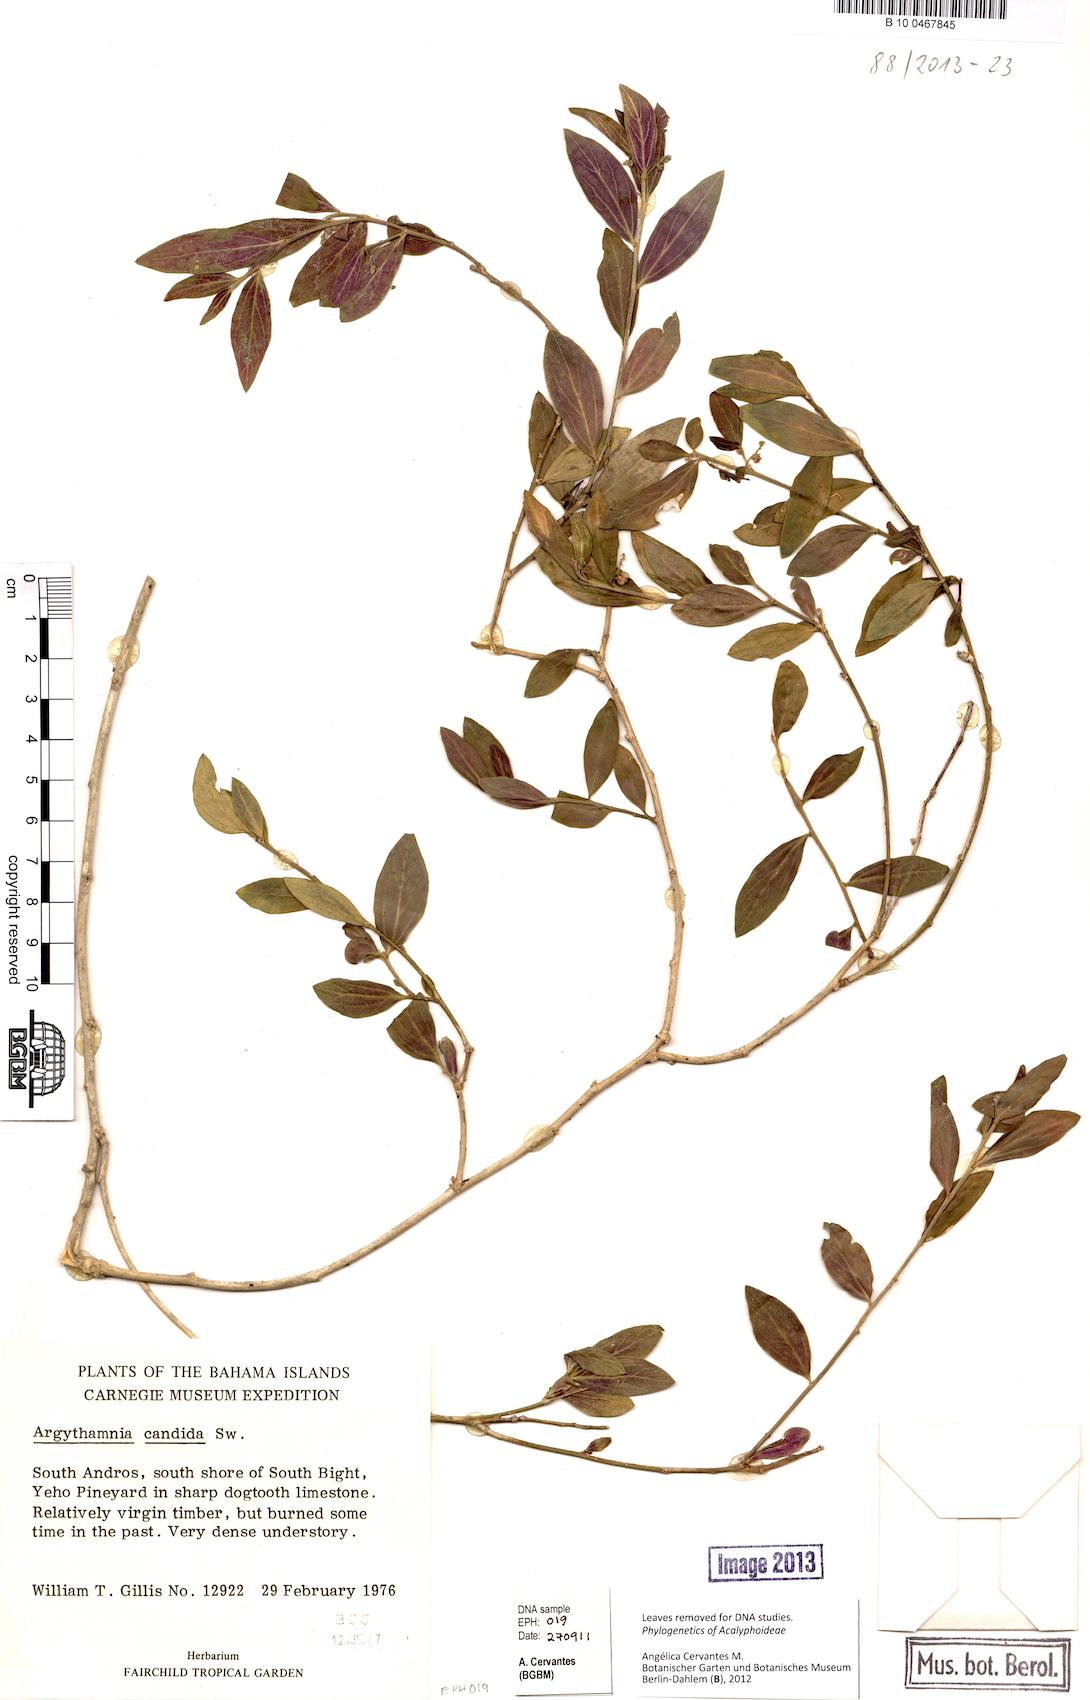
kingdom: Plantae
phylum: Tracheophyta
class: Magnoliopsida
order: Malpighiales
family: Euphorbiaceae
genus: Argythamnia
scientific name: Argythamnia
